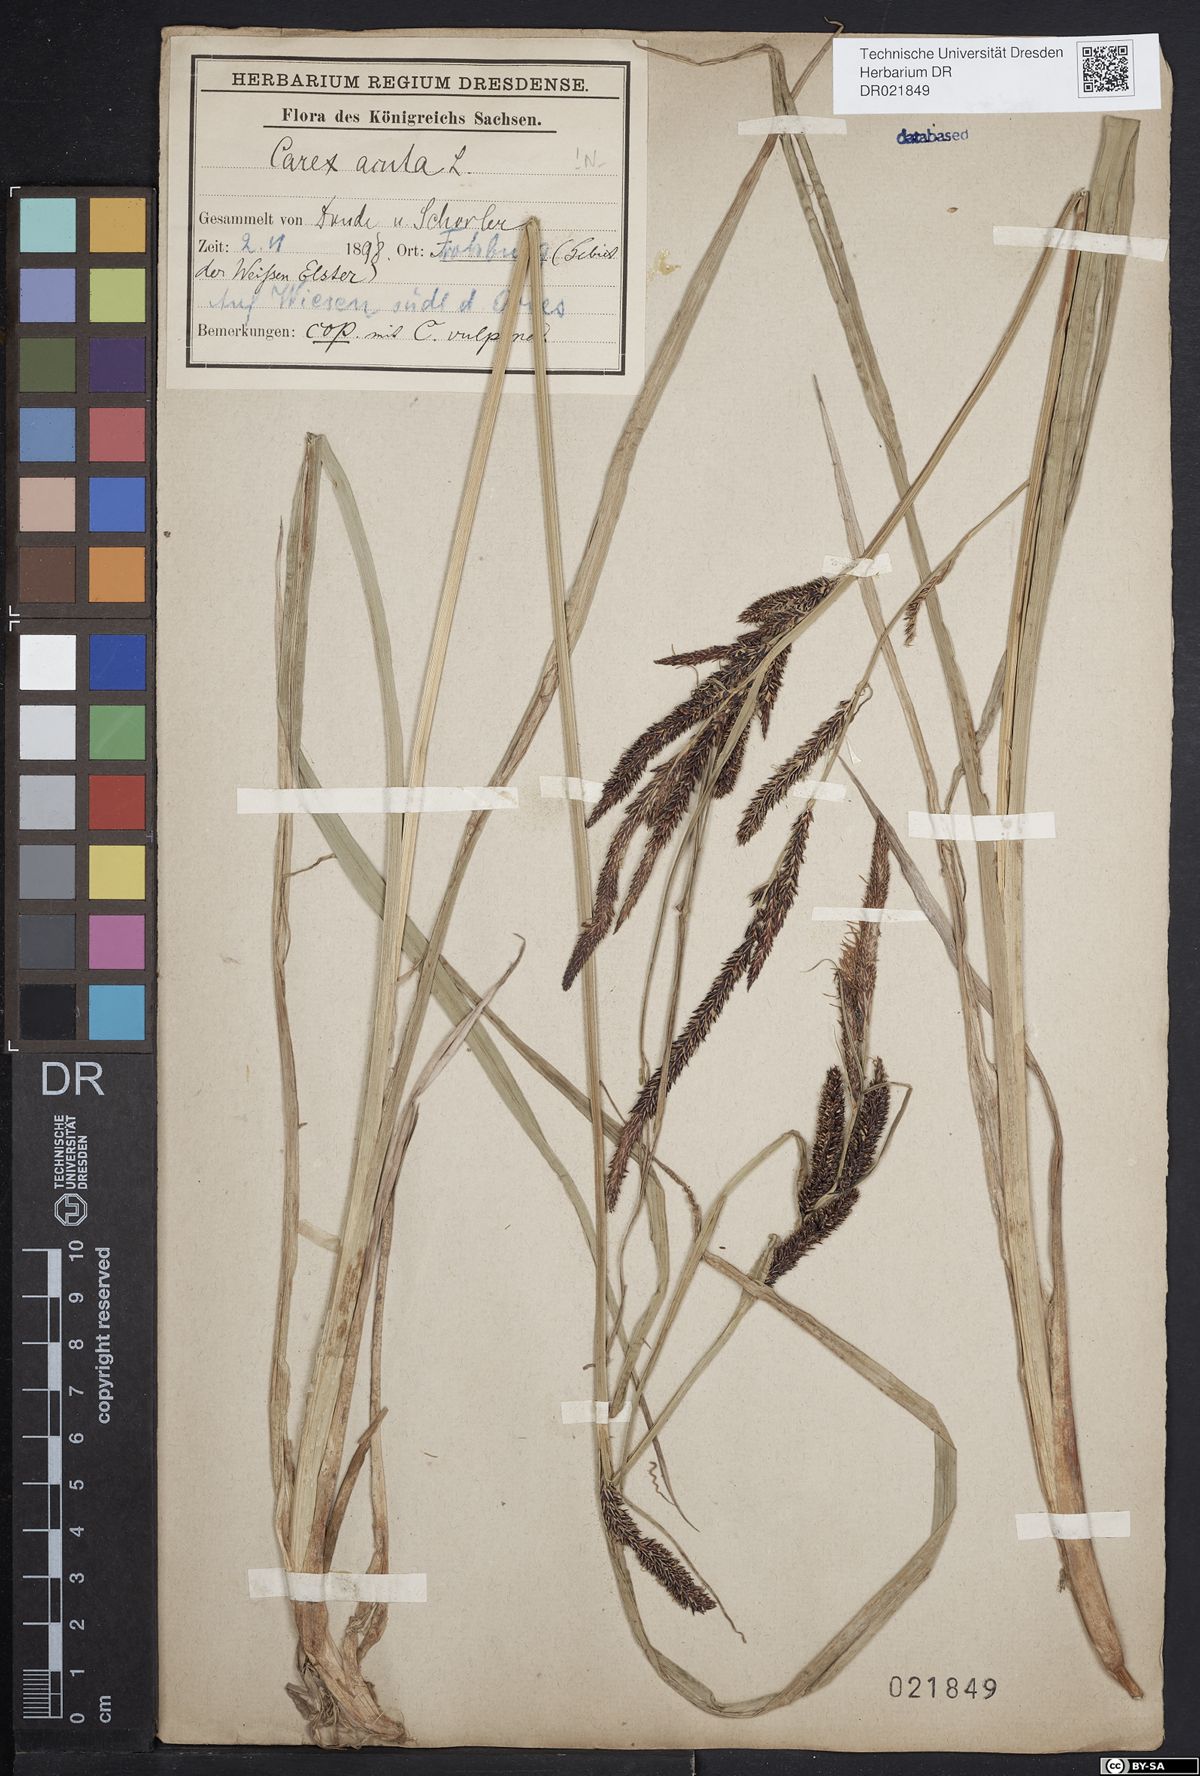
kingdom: Plantae
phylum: Tracheophyta
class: Liliopsida
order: Poales
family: Cyperaceae
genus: Carex
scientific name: Carex acuta
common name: Slender tufted-sedge
